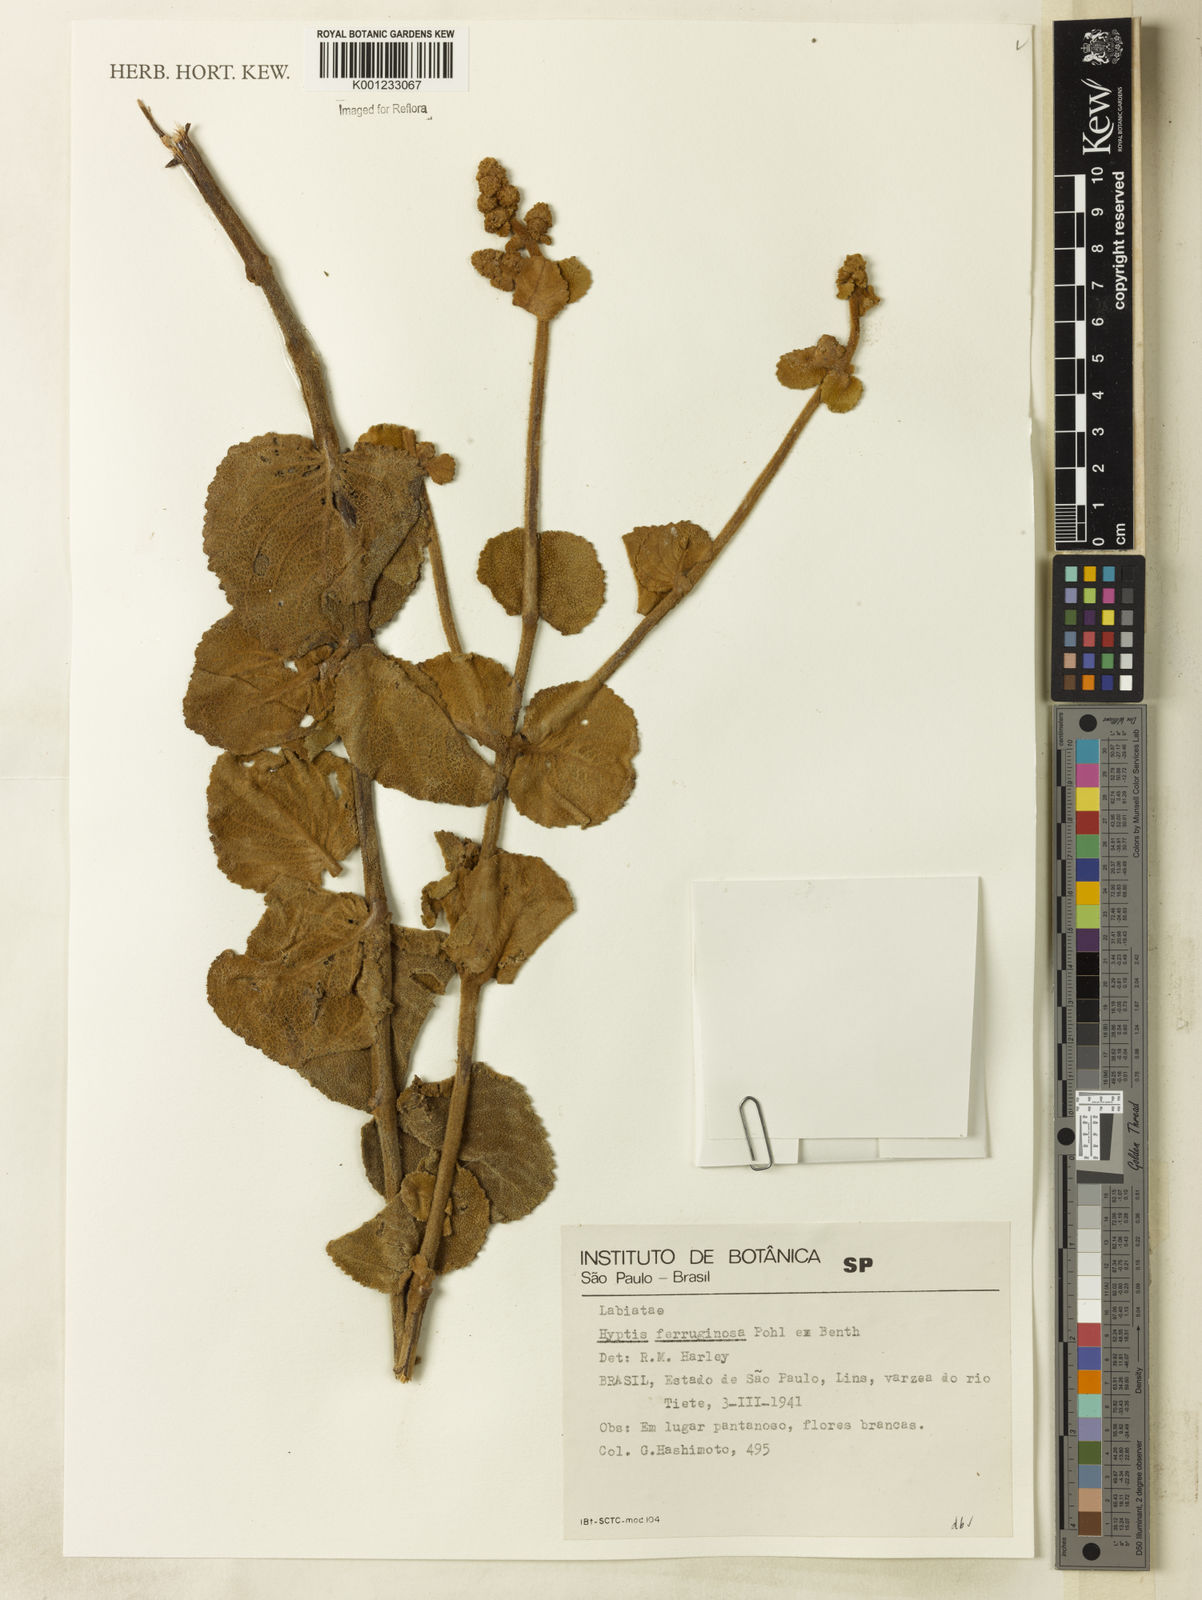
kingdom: Plantae
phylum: Tracheophyta
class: Magnoliopsida
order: Lamiales
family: Lamiaceae
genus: Hyptis
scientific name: Hyptis ferruginosa
